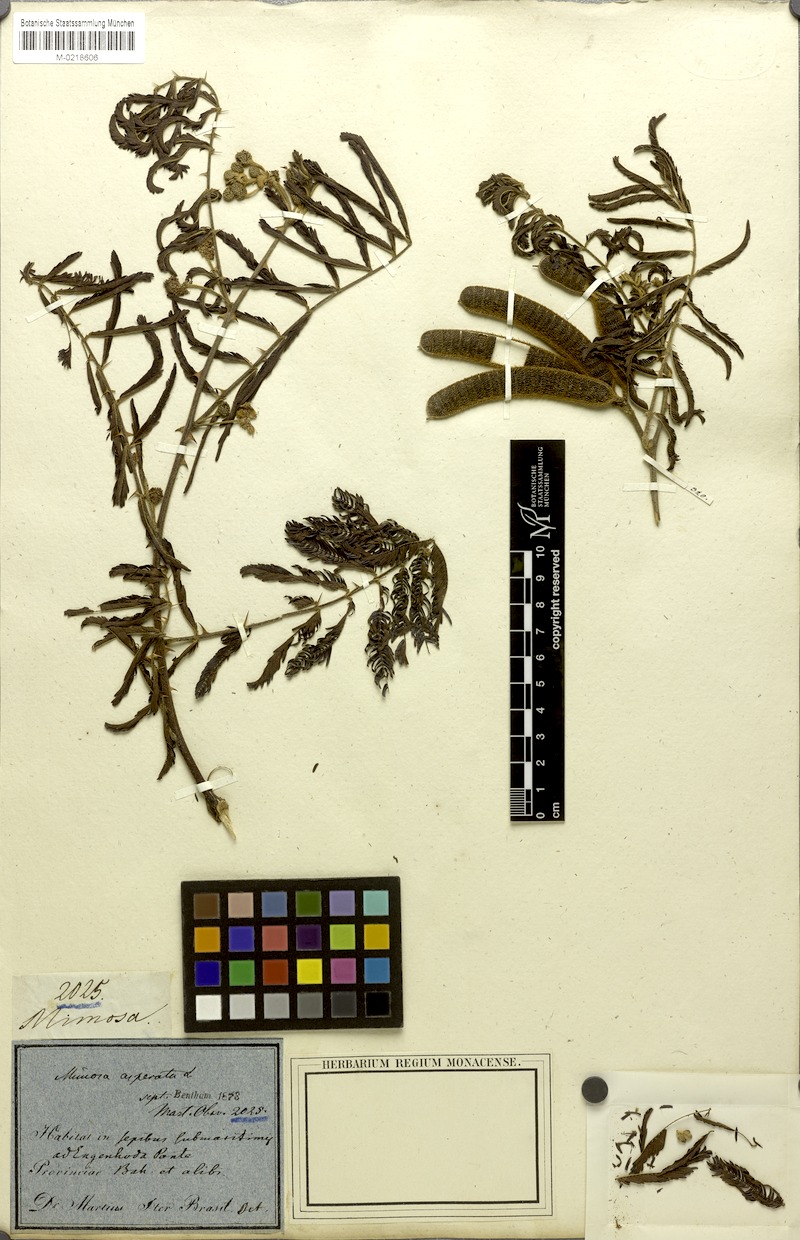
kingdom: Plantae
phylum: Tracheophyta
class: Magnoliopsida
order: Fabales
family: Fabaceae
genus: Mimosa
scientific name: Mimosa pigra
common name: Black mimosa
